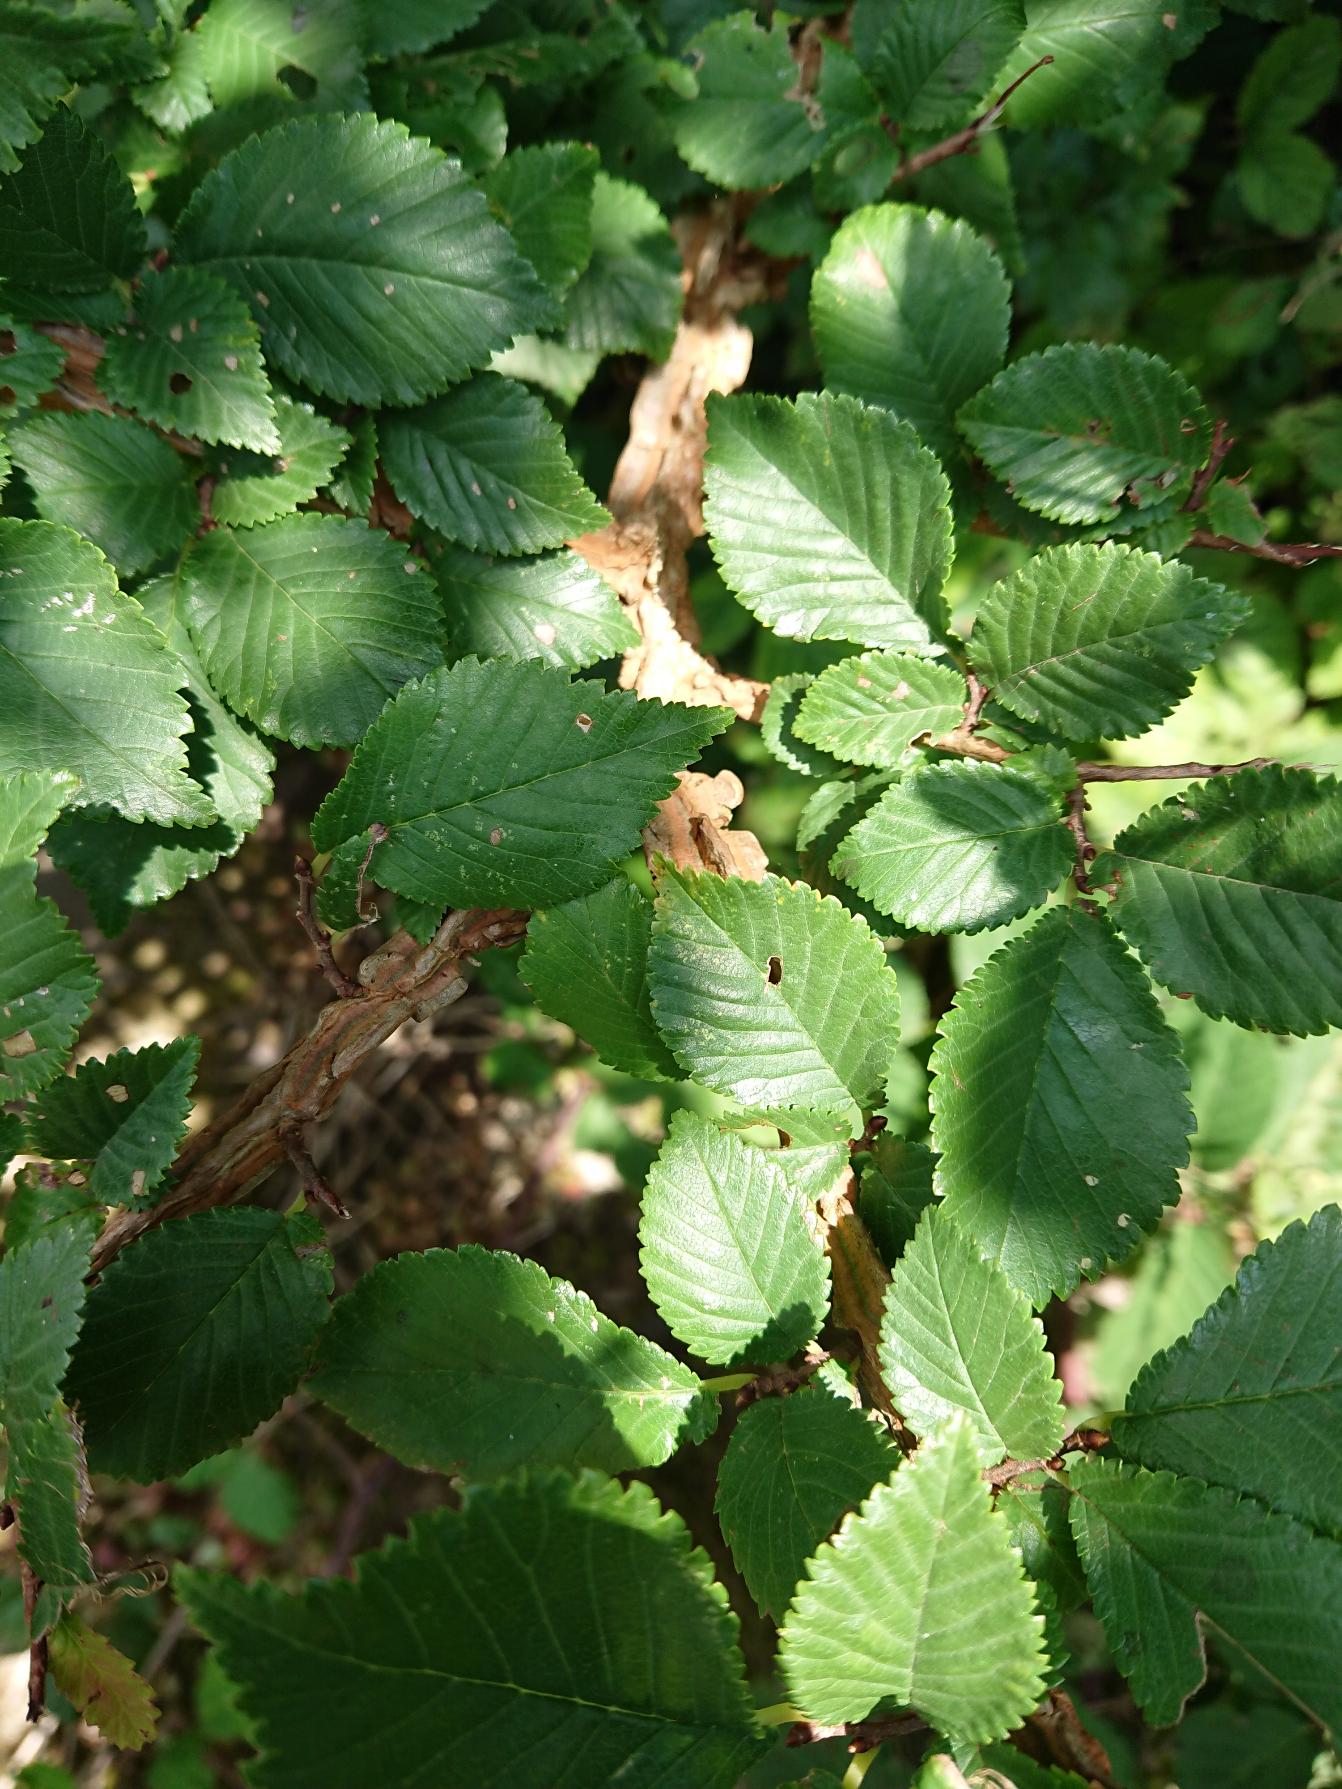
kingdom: Plantae
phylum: Tracheophyta
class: Magnoliopsida
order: Rosales
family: Ulmaceae
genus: Ulmus
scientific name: Ulmus minor
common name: Småbladet elm
